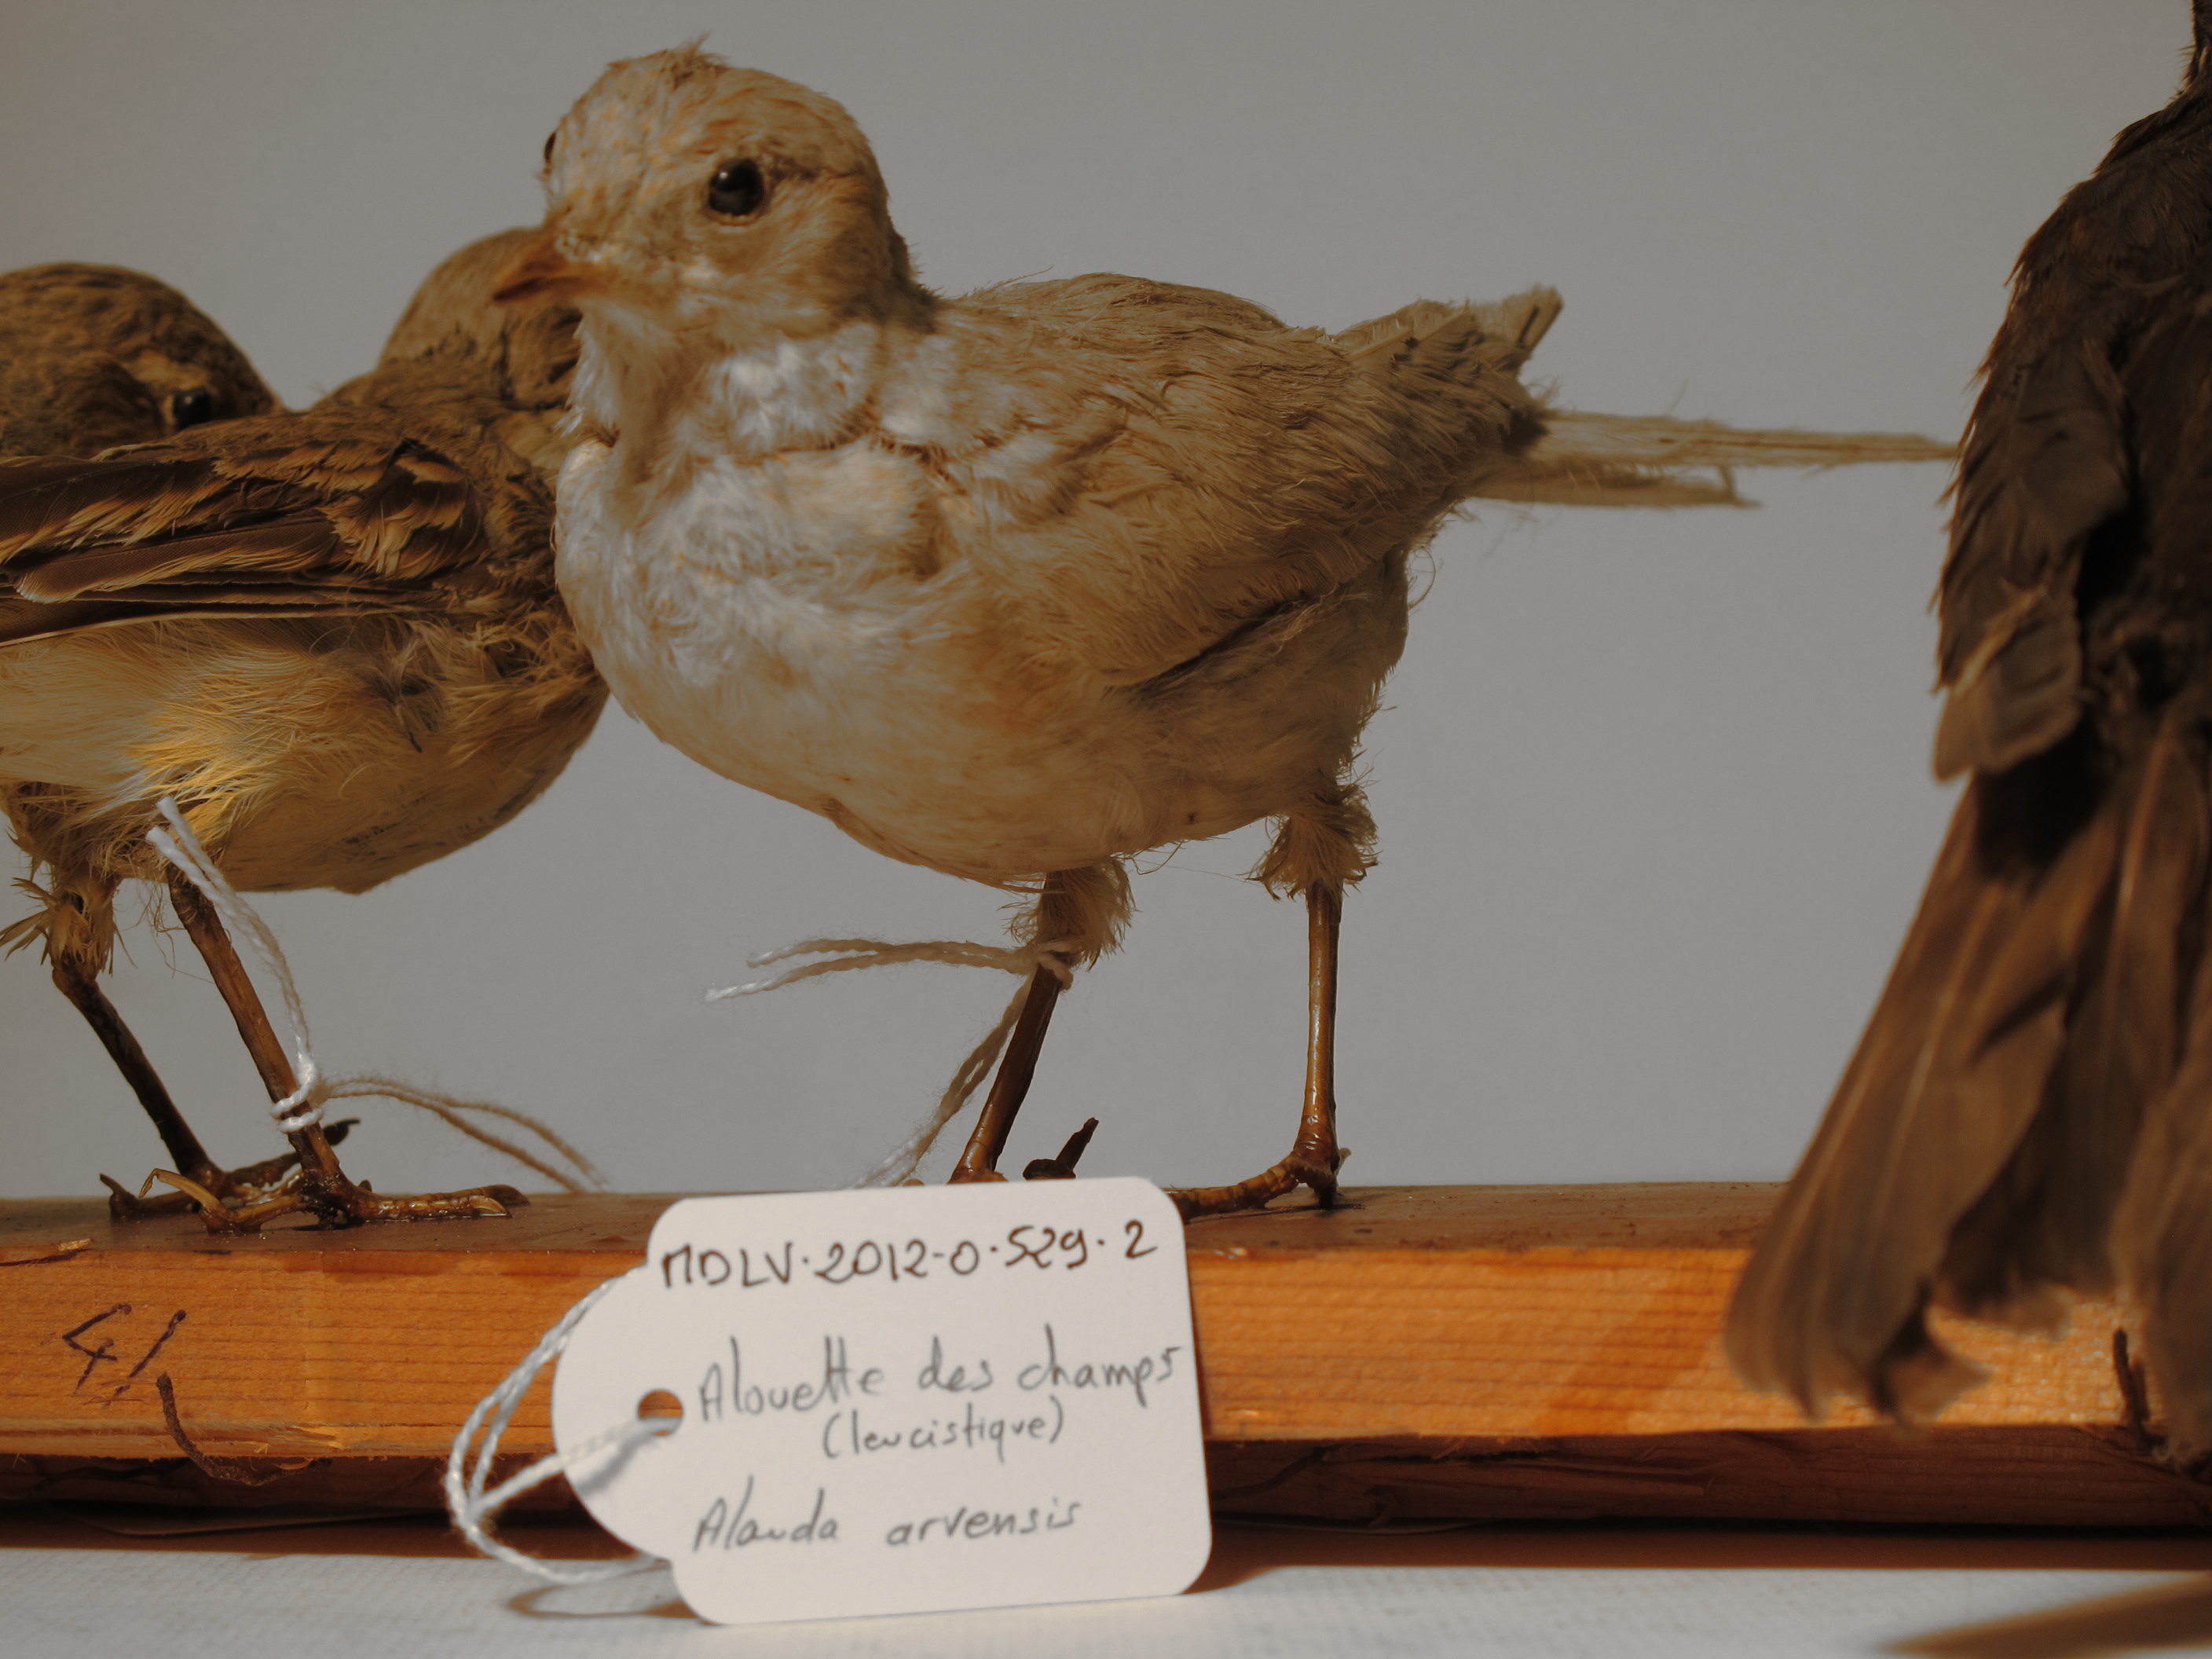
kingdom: Animalia
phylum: Chordata
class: Aves
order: Passeriformes
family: Alaudidae
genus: Alauda
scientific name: Alauda arvensis
